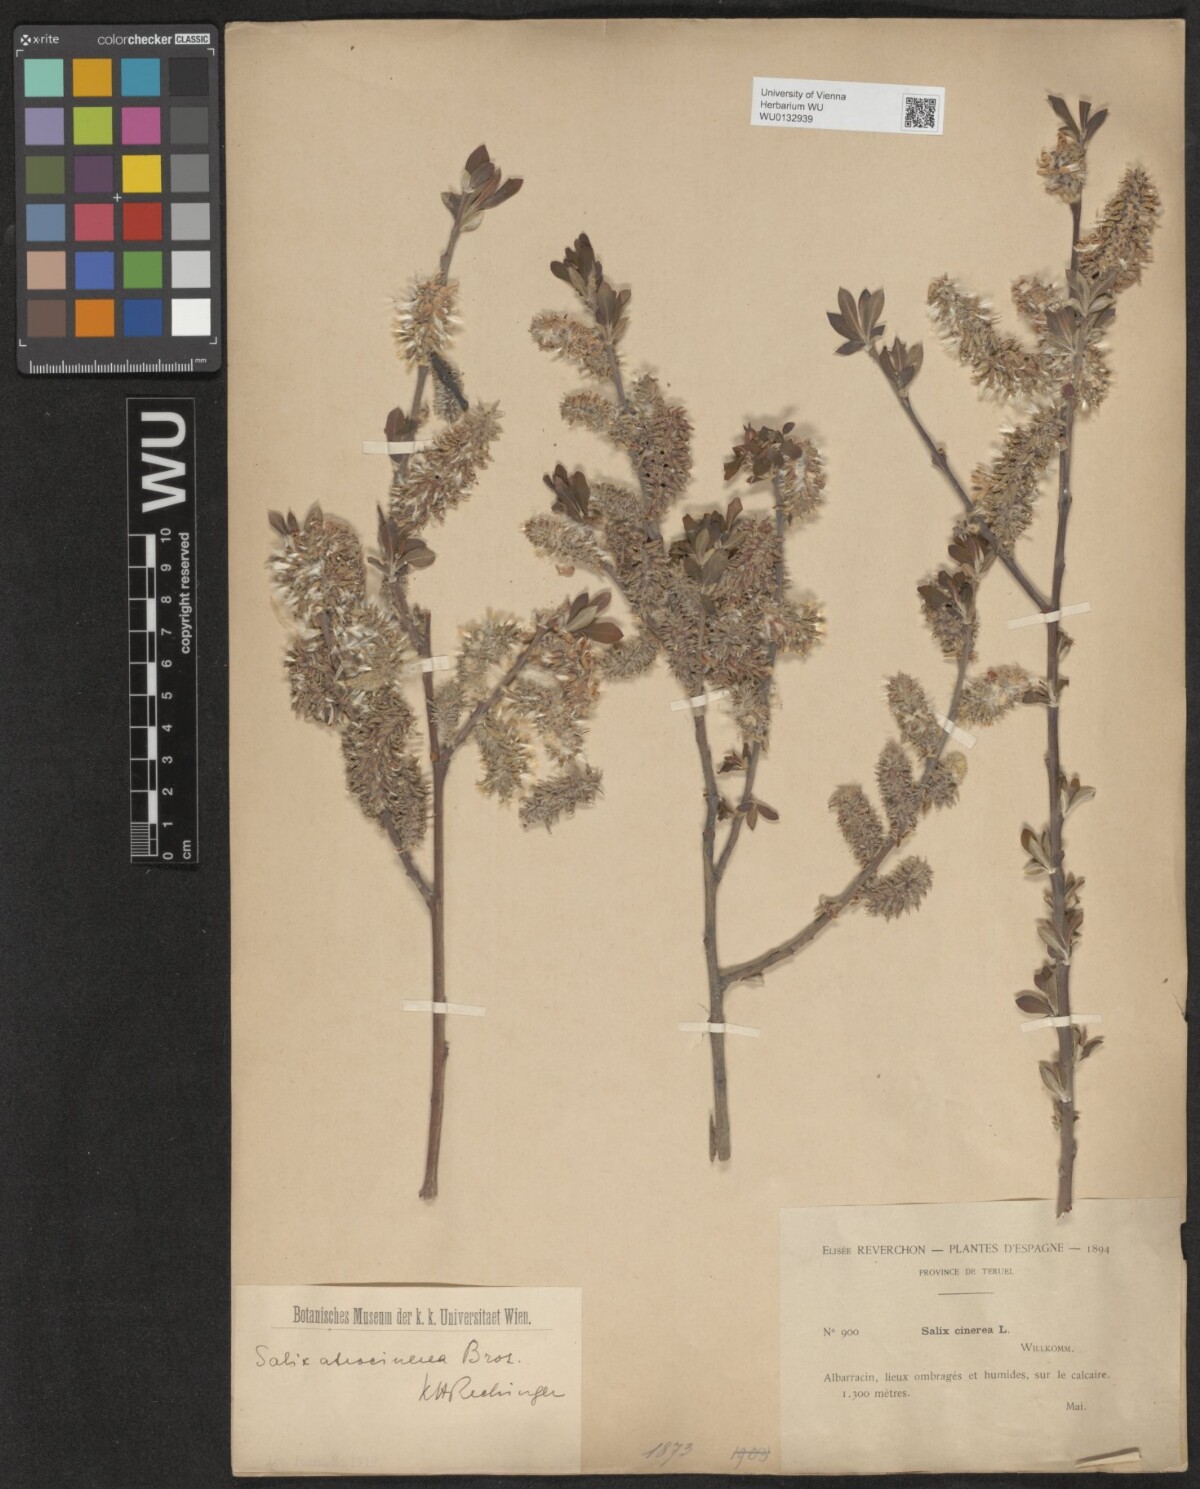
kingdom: Plantae
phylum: Tracheophyta
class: Magnoliopsida
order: Malpighiales
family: Salicaceae
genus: Salix
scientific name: Salix atrocinerea
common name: Rusty willow
